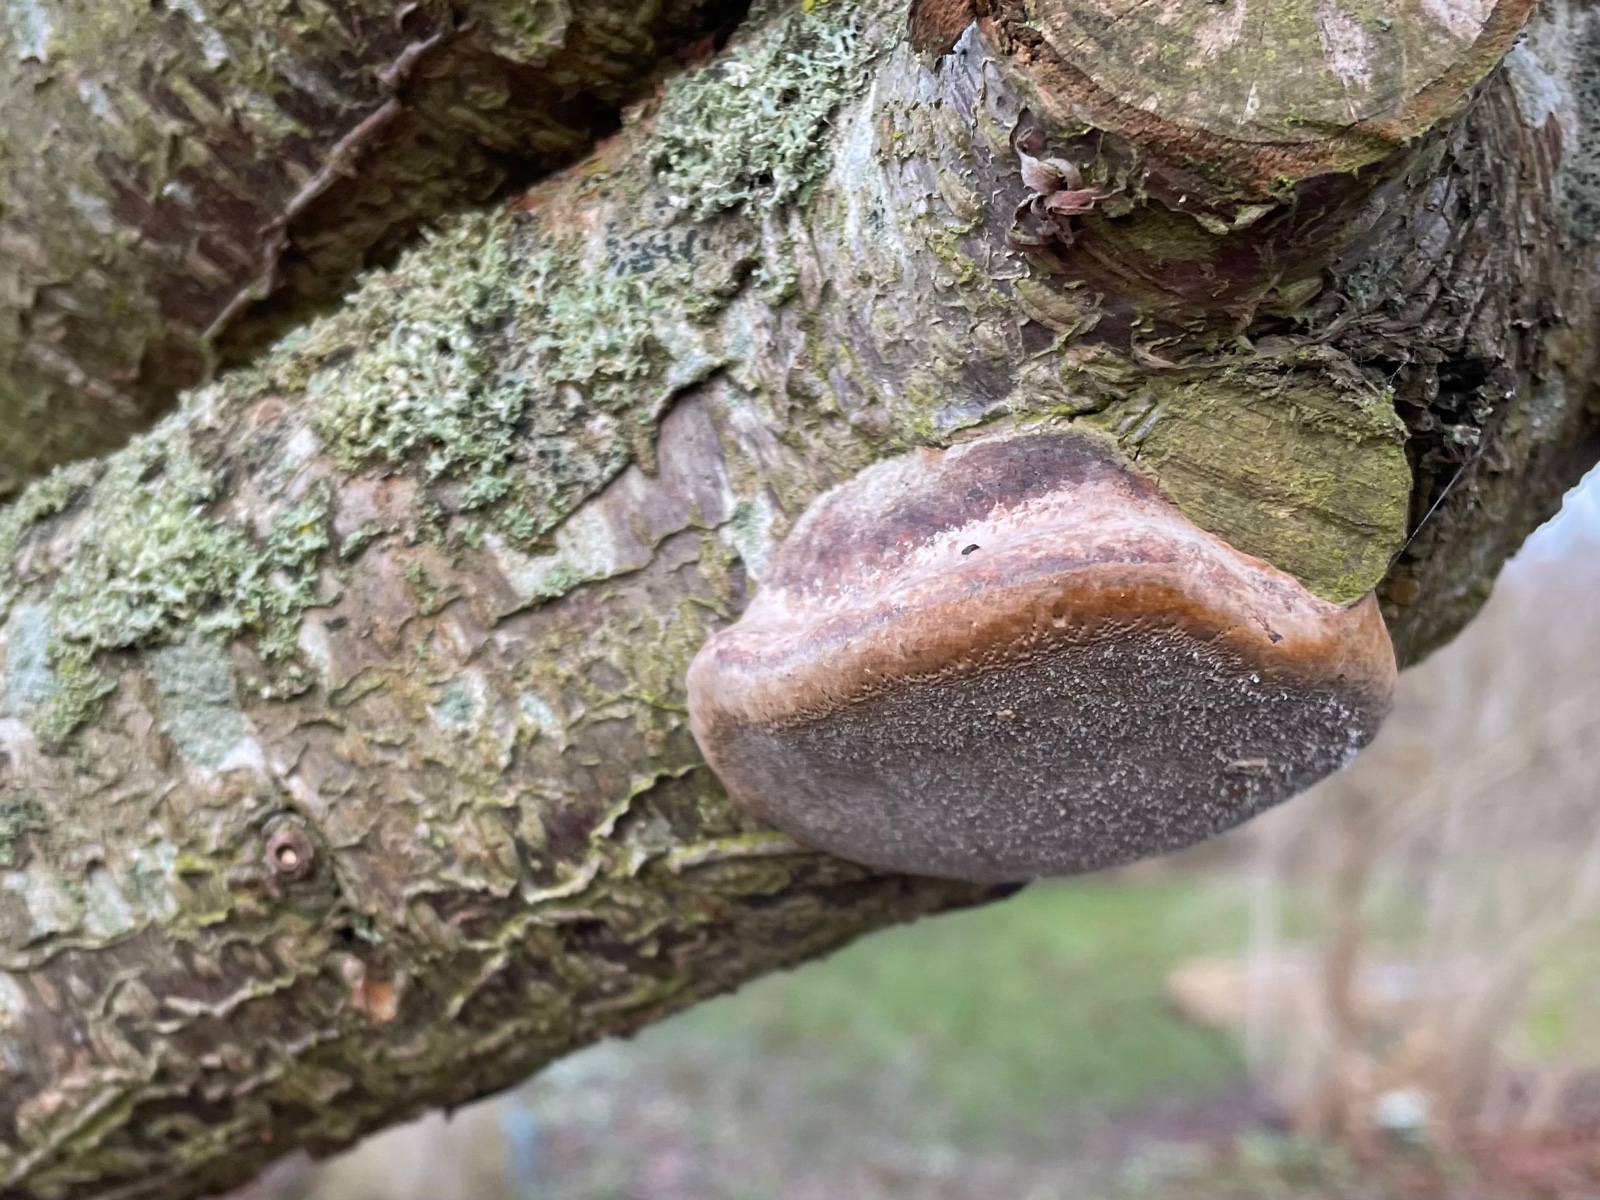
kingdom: Fungi
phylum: Basidiomycota
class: Agaricomycetes
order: Hymenochaetales
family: Hymenochaetaceae
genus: Phellinus
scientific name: Phellinus pomaceus
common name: blomme-ildporesvamp
